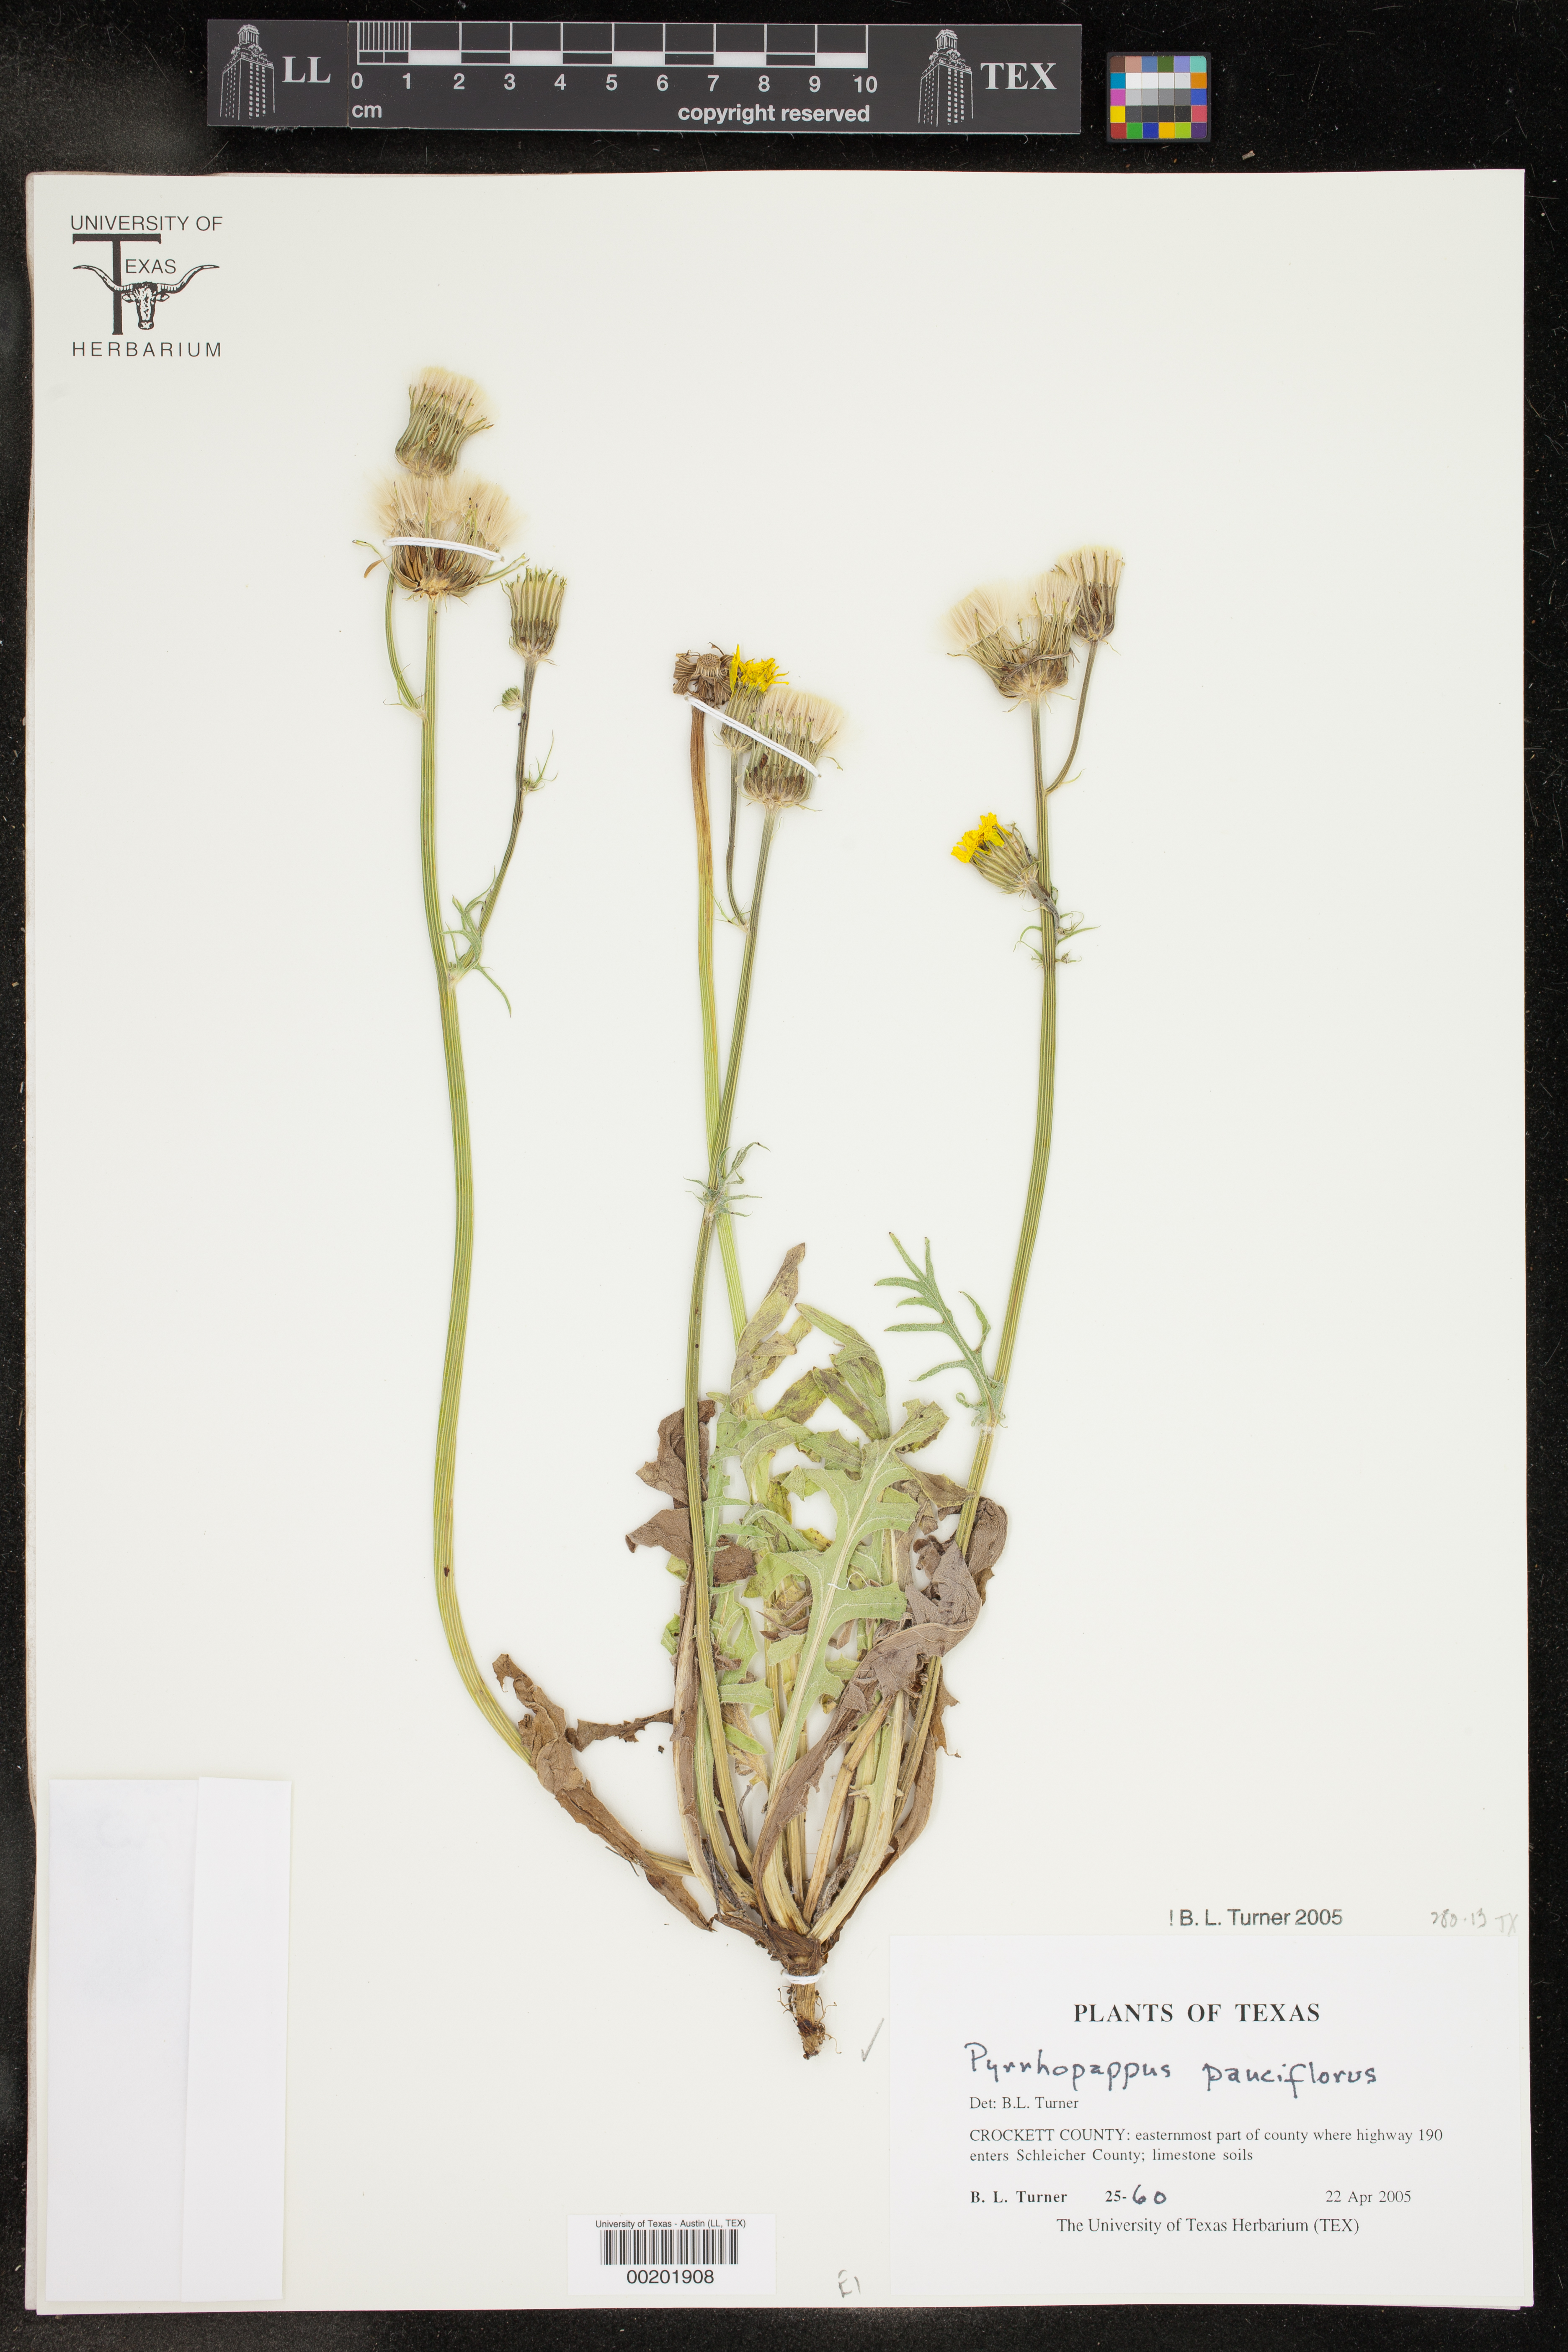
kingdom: Plantae
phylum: Tracheophyta
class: Magnoliopsida
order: Asterales
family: Asteraceae
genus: Pyrrhopappus
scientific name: Pyrrhopappus pauciflorus
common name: Texas false dandelion
